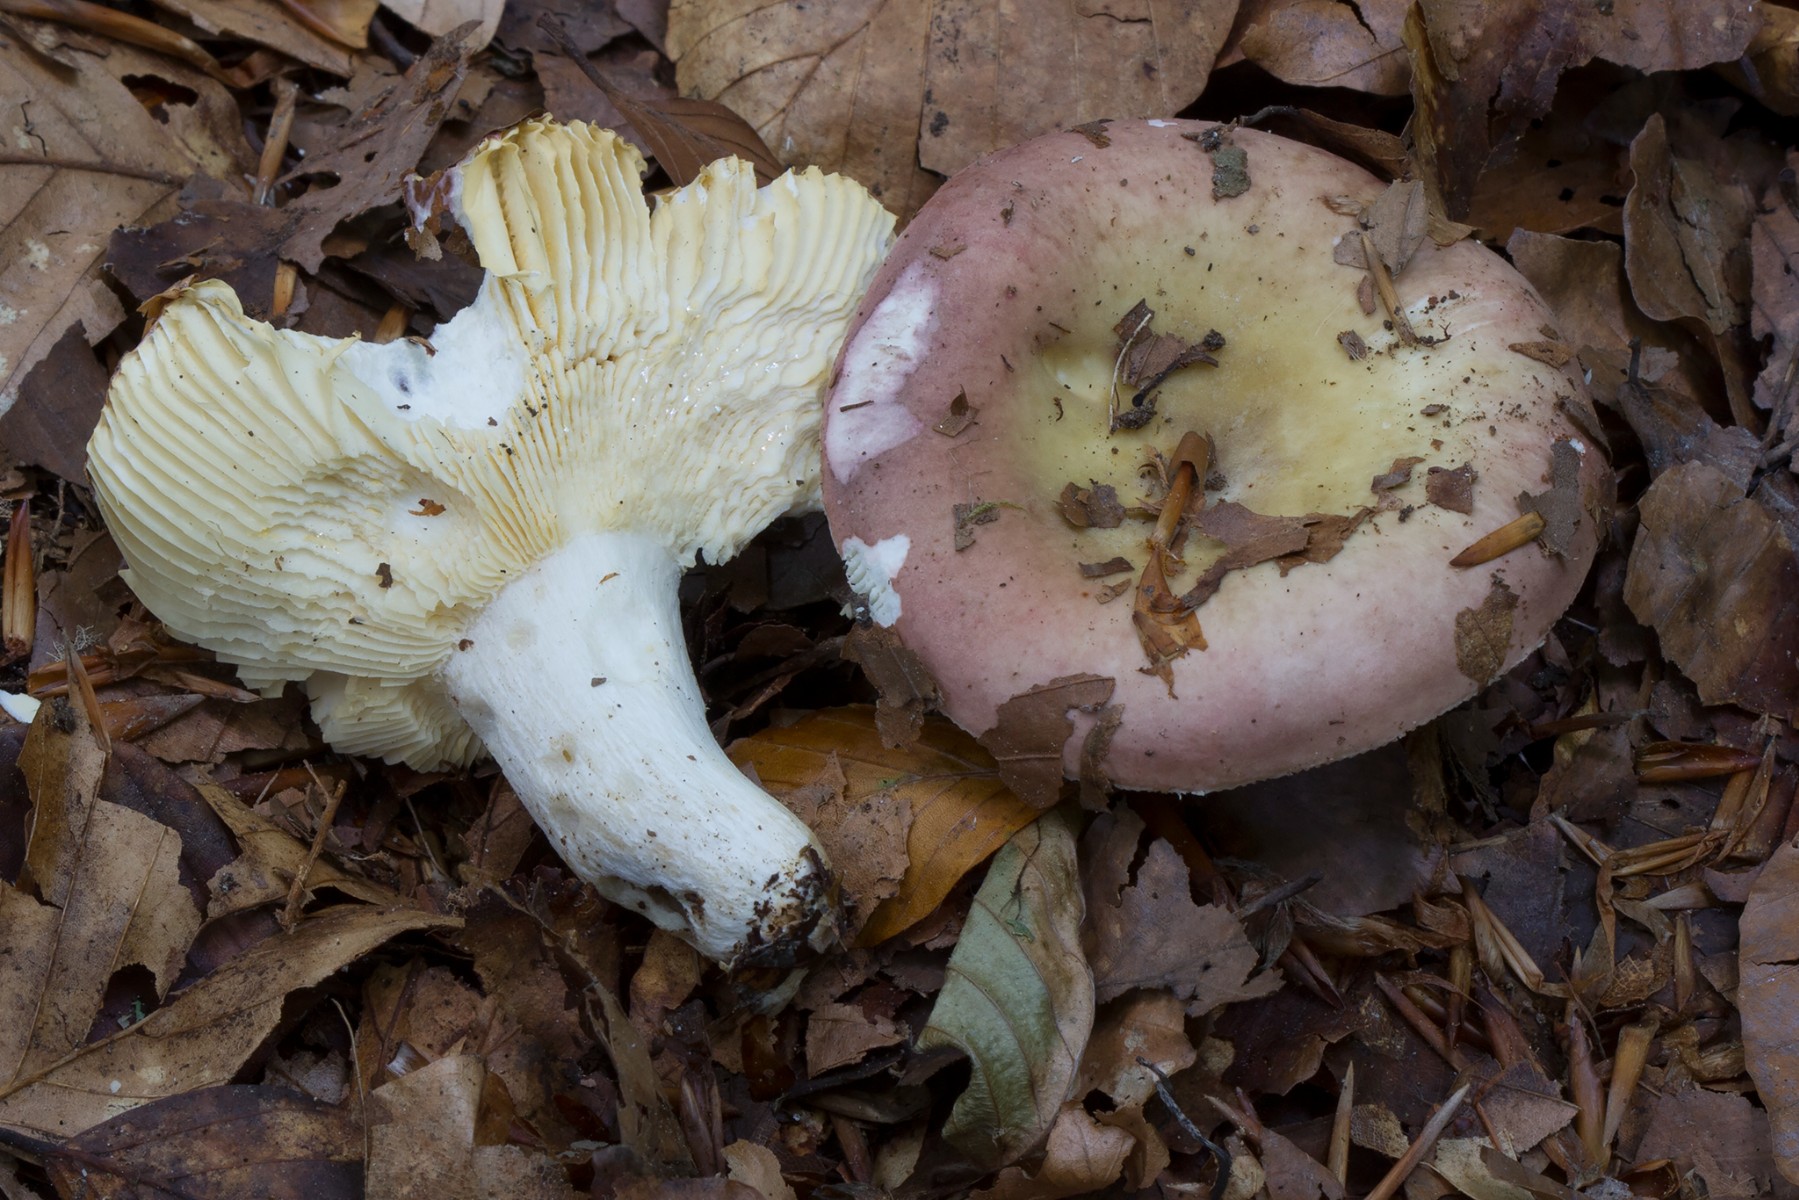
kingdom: Fungi
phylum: Basidiomycota
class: Agaricomycetes
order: Russulales
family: Russulaceae
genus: Russula
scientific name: Russula curtipes
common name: kortstokket skørhat
